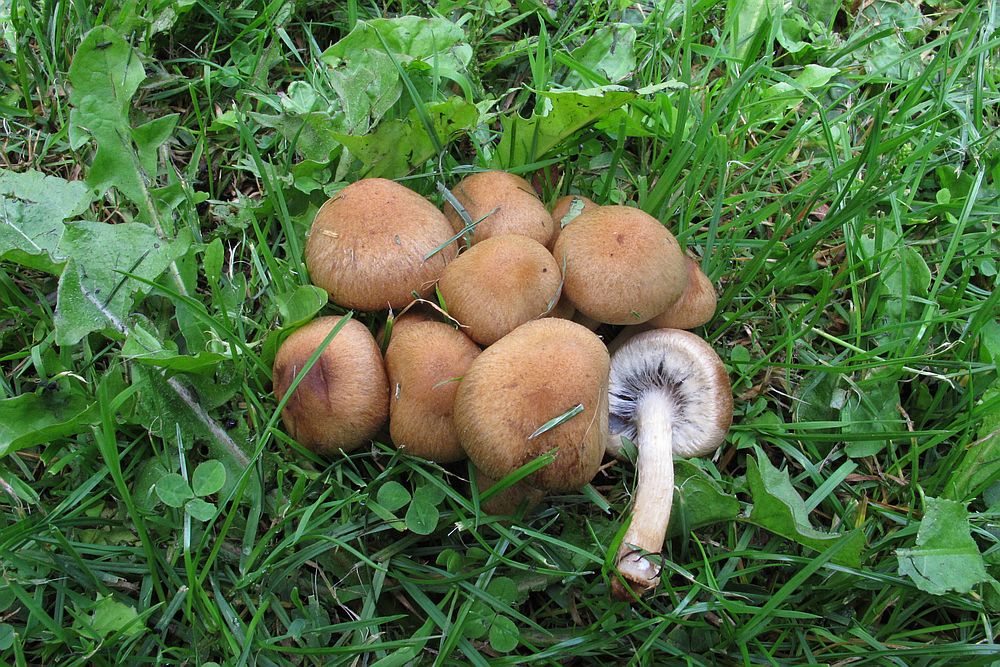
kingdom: Fungi
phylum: Basidiomycota
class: Agaricomycetes
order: Agaricales
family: Psathyrellaceae
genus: Lacrymaria
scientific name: Lacrymaria lacrymabunda
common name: grædende mørkhat
